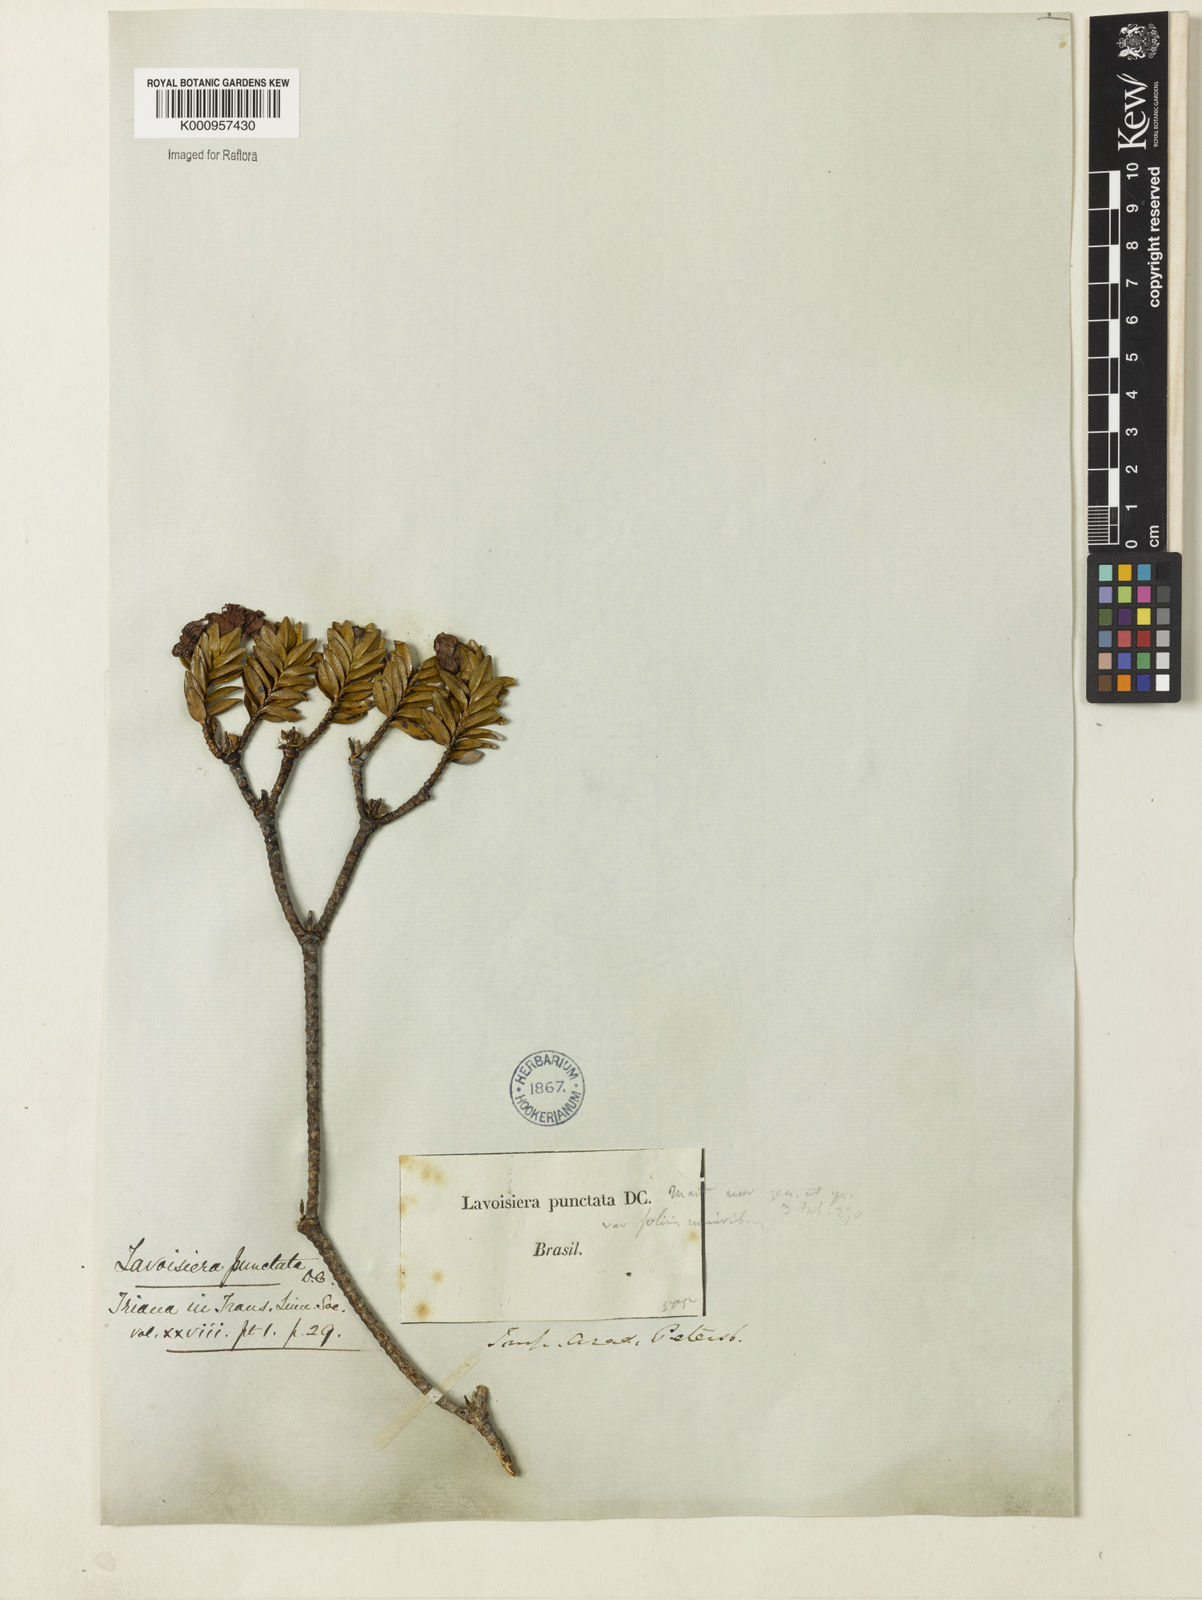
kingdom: Plantae
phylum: Tracheophyta
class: Magnoliopsida
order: Myrtales
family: Melastomataceae
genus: Microlicia
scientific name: Microlicia punctata
